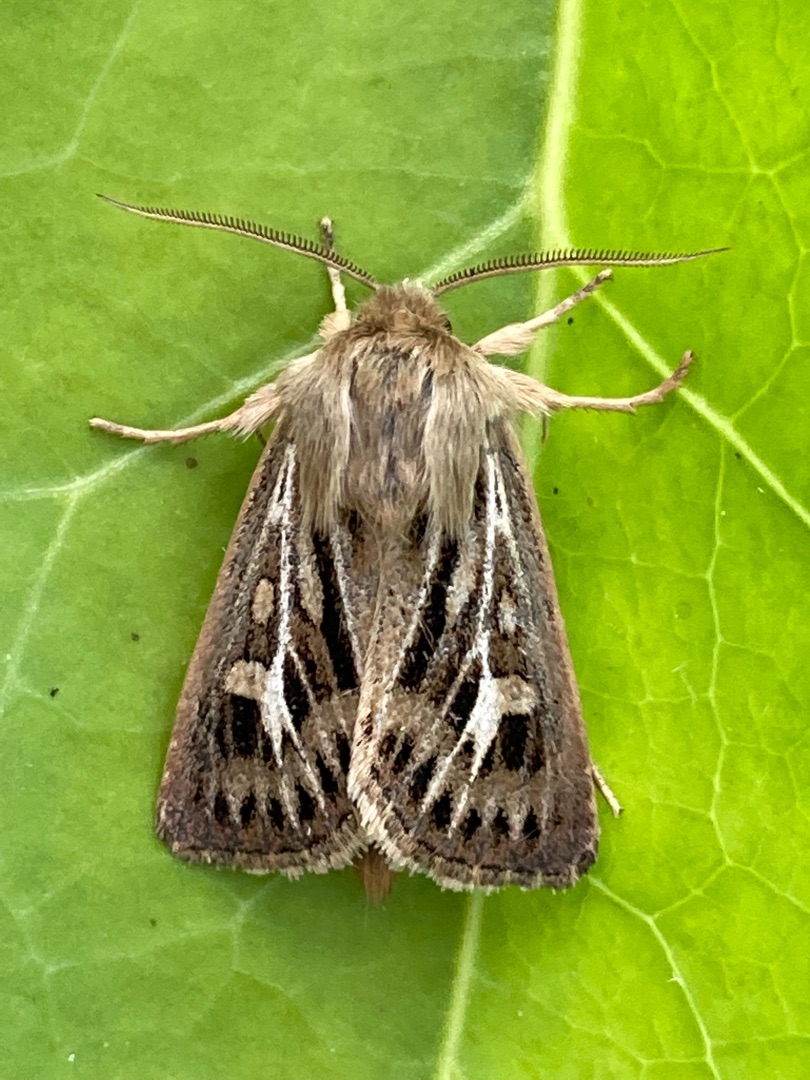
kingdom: Animalia
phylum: Arthropoda
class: Insecta
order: Lepidoptera
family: Noctuidae
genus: Cerapteryx
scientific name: Cerapteryx graminis
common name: Mosebunkeugle
